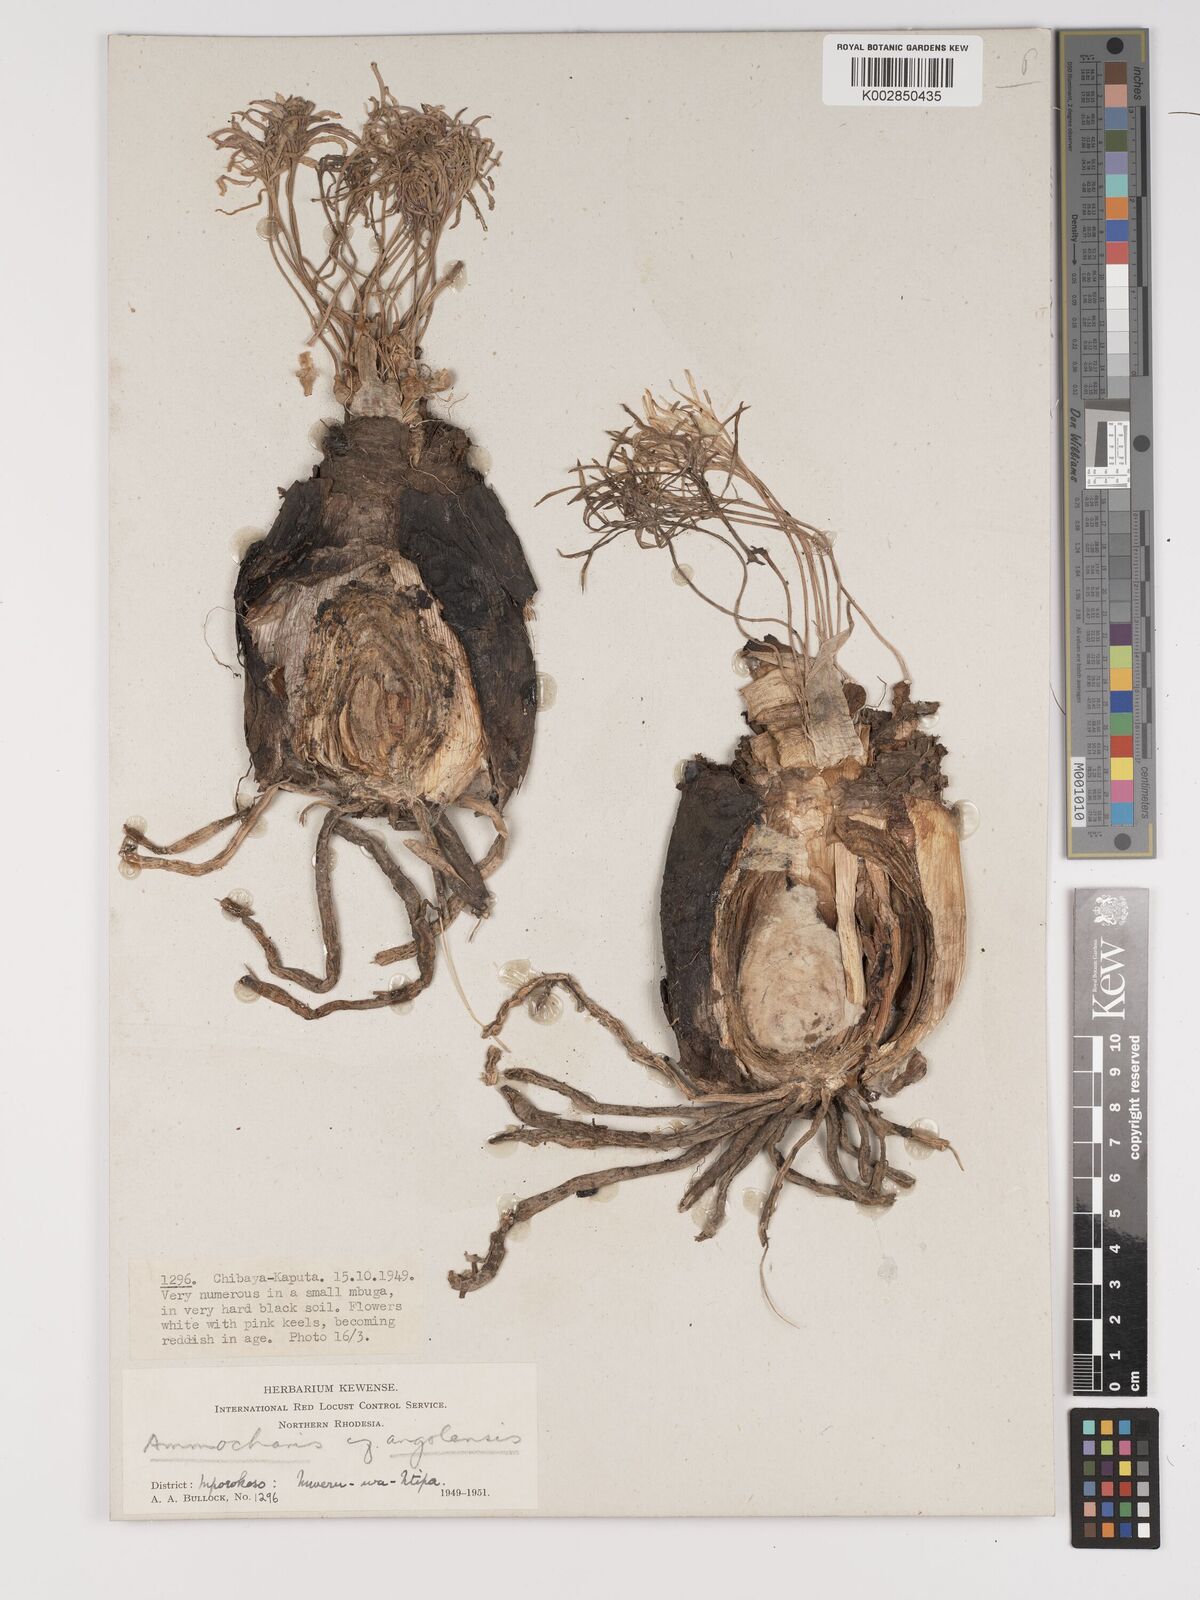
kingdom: Plantae
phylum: Tracheophyta
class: Liliopsida
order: Asparagales
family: Amaryllidaceae
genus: Ammocharis
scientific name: Ammocharis angolensis
